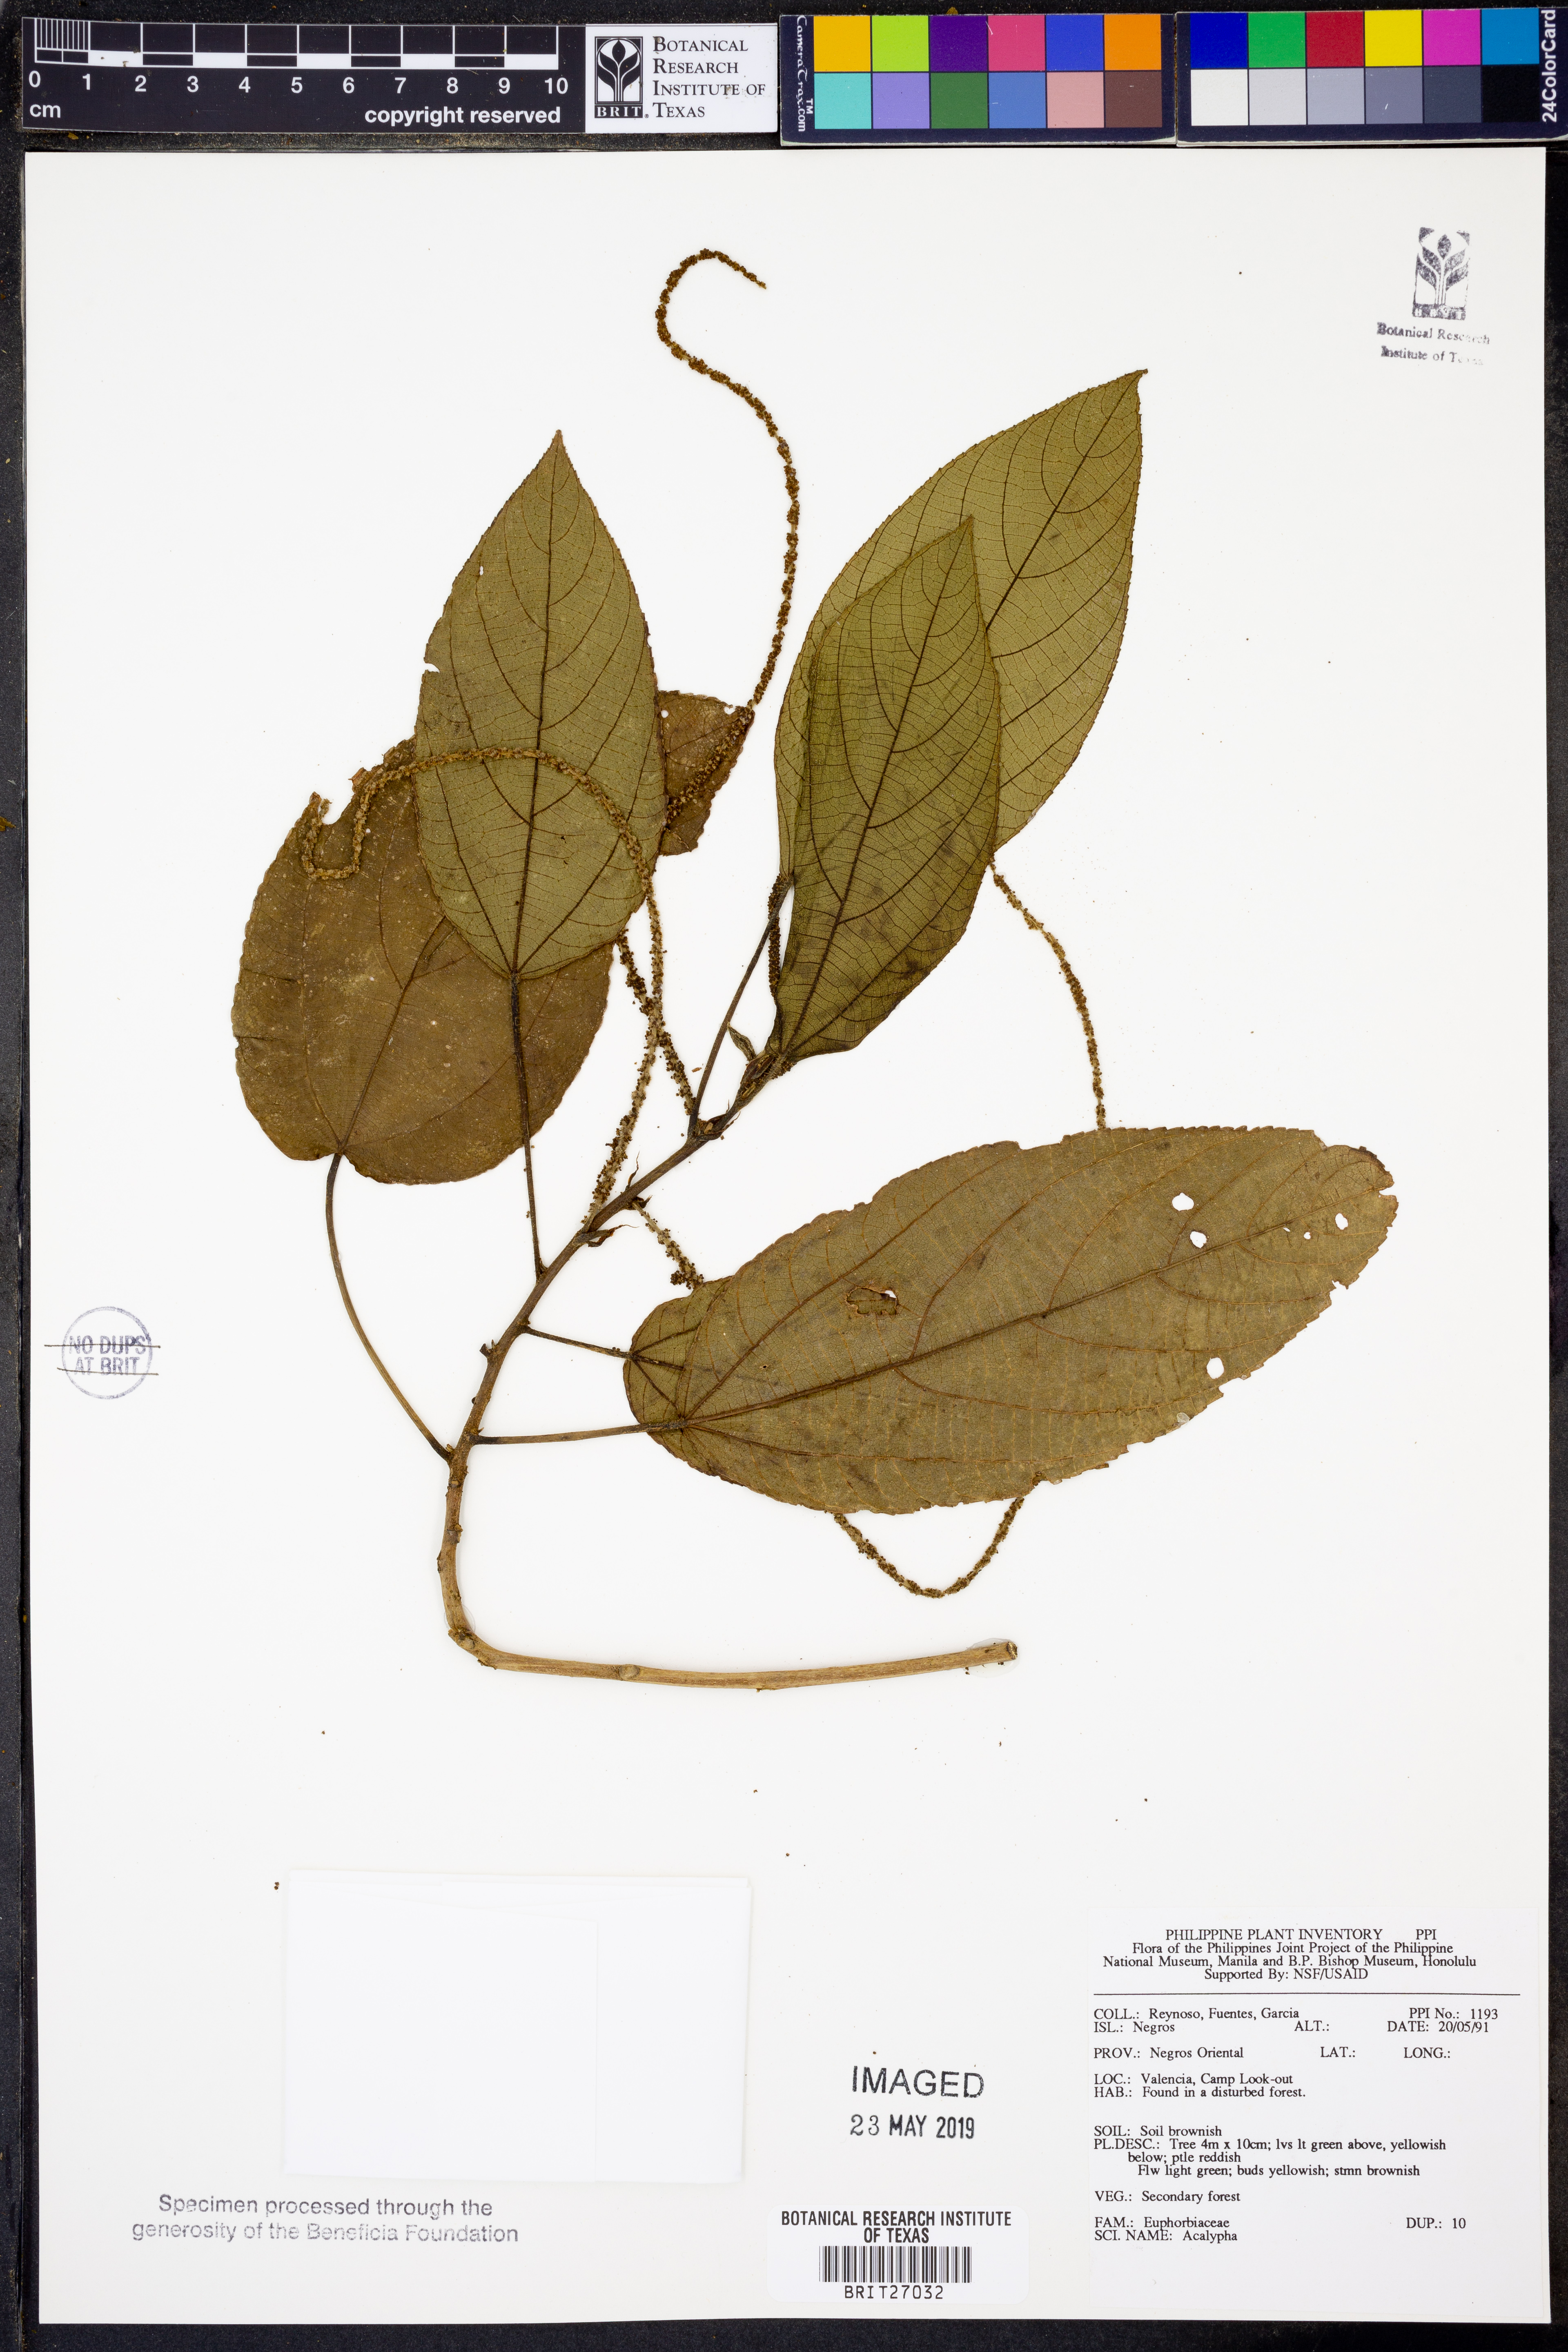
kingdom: Plantae
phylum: Tracheophyta
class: Magnoliopsida
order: Malpighiales
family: Euphorbiaceae
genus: Acalypha
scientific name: Acalypha
